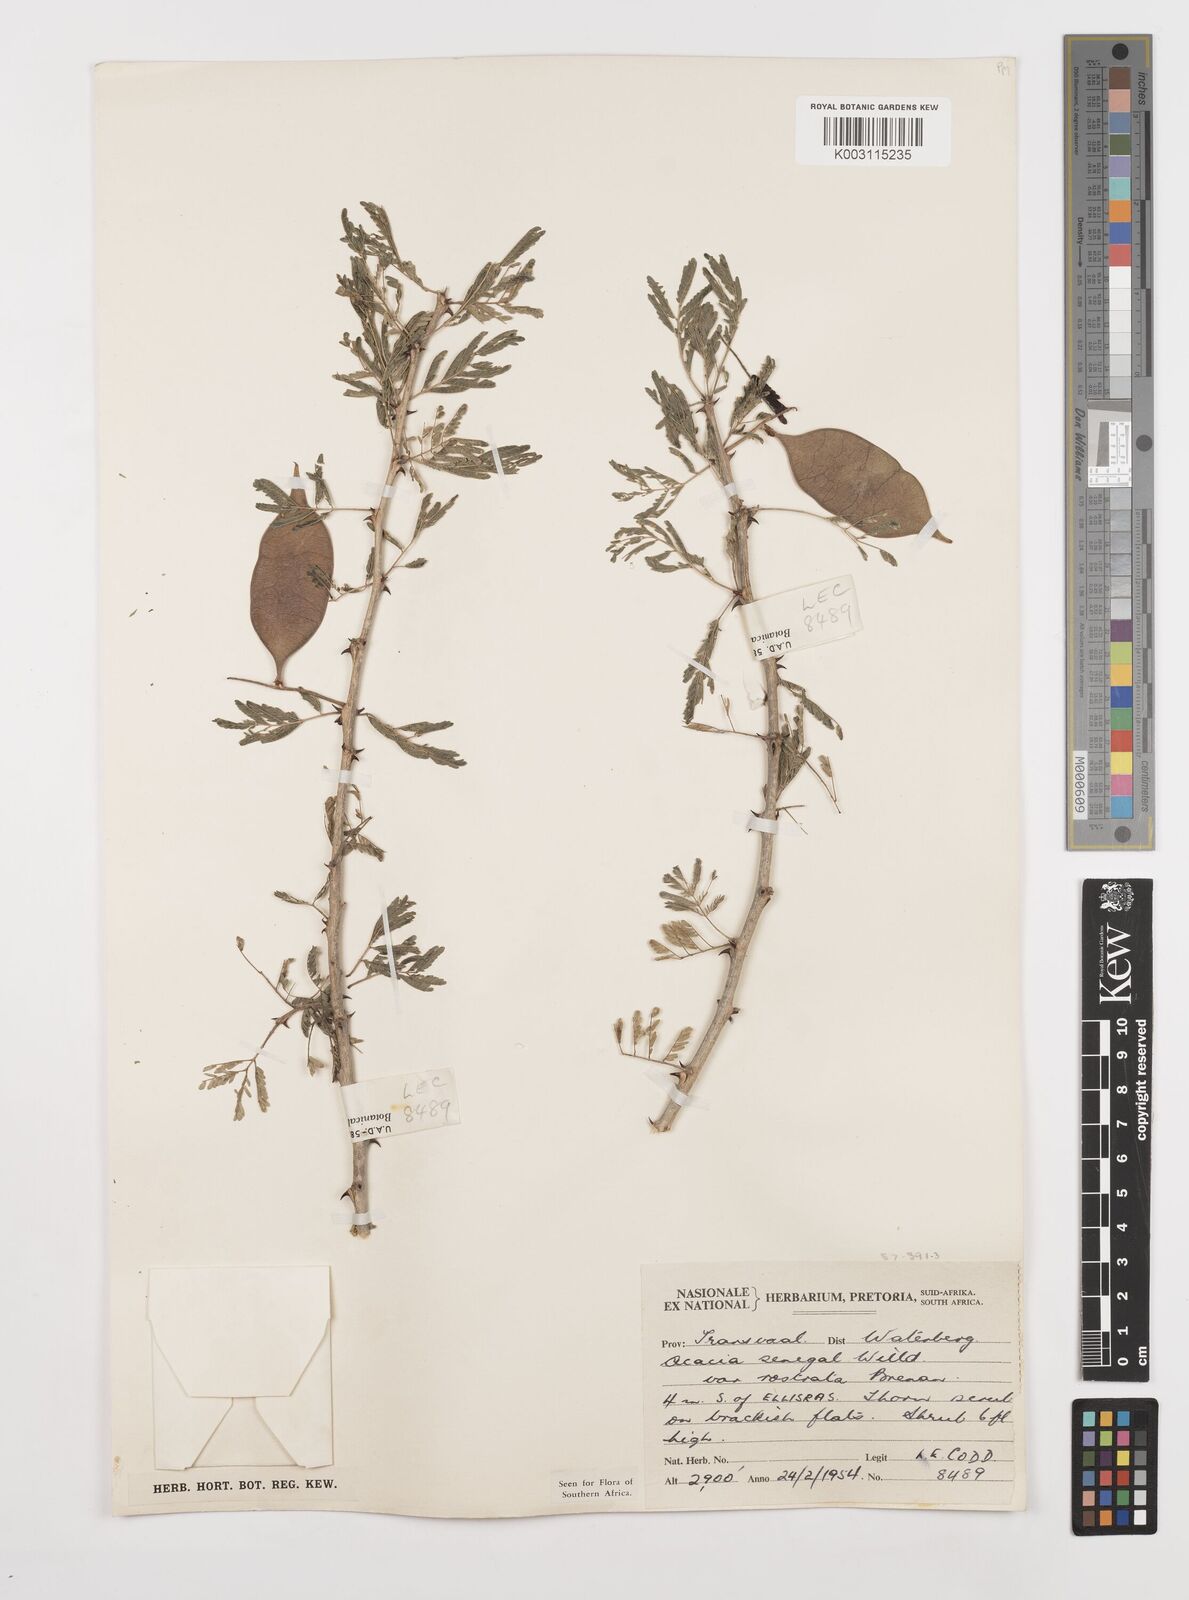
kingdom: Plantae
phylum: Tracheophyta
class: Magnoliopsida
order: Fabales
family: Fabaceae
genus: Senegalia
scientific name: Senegalia senegal
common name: Senegal-gum
